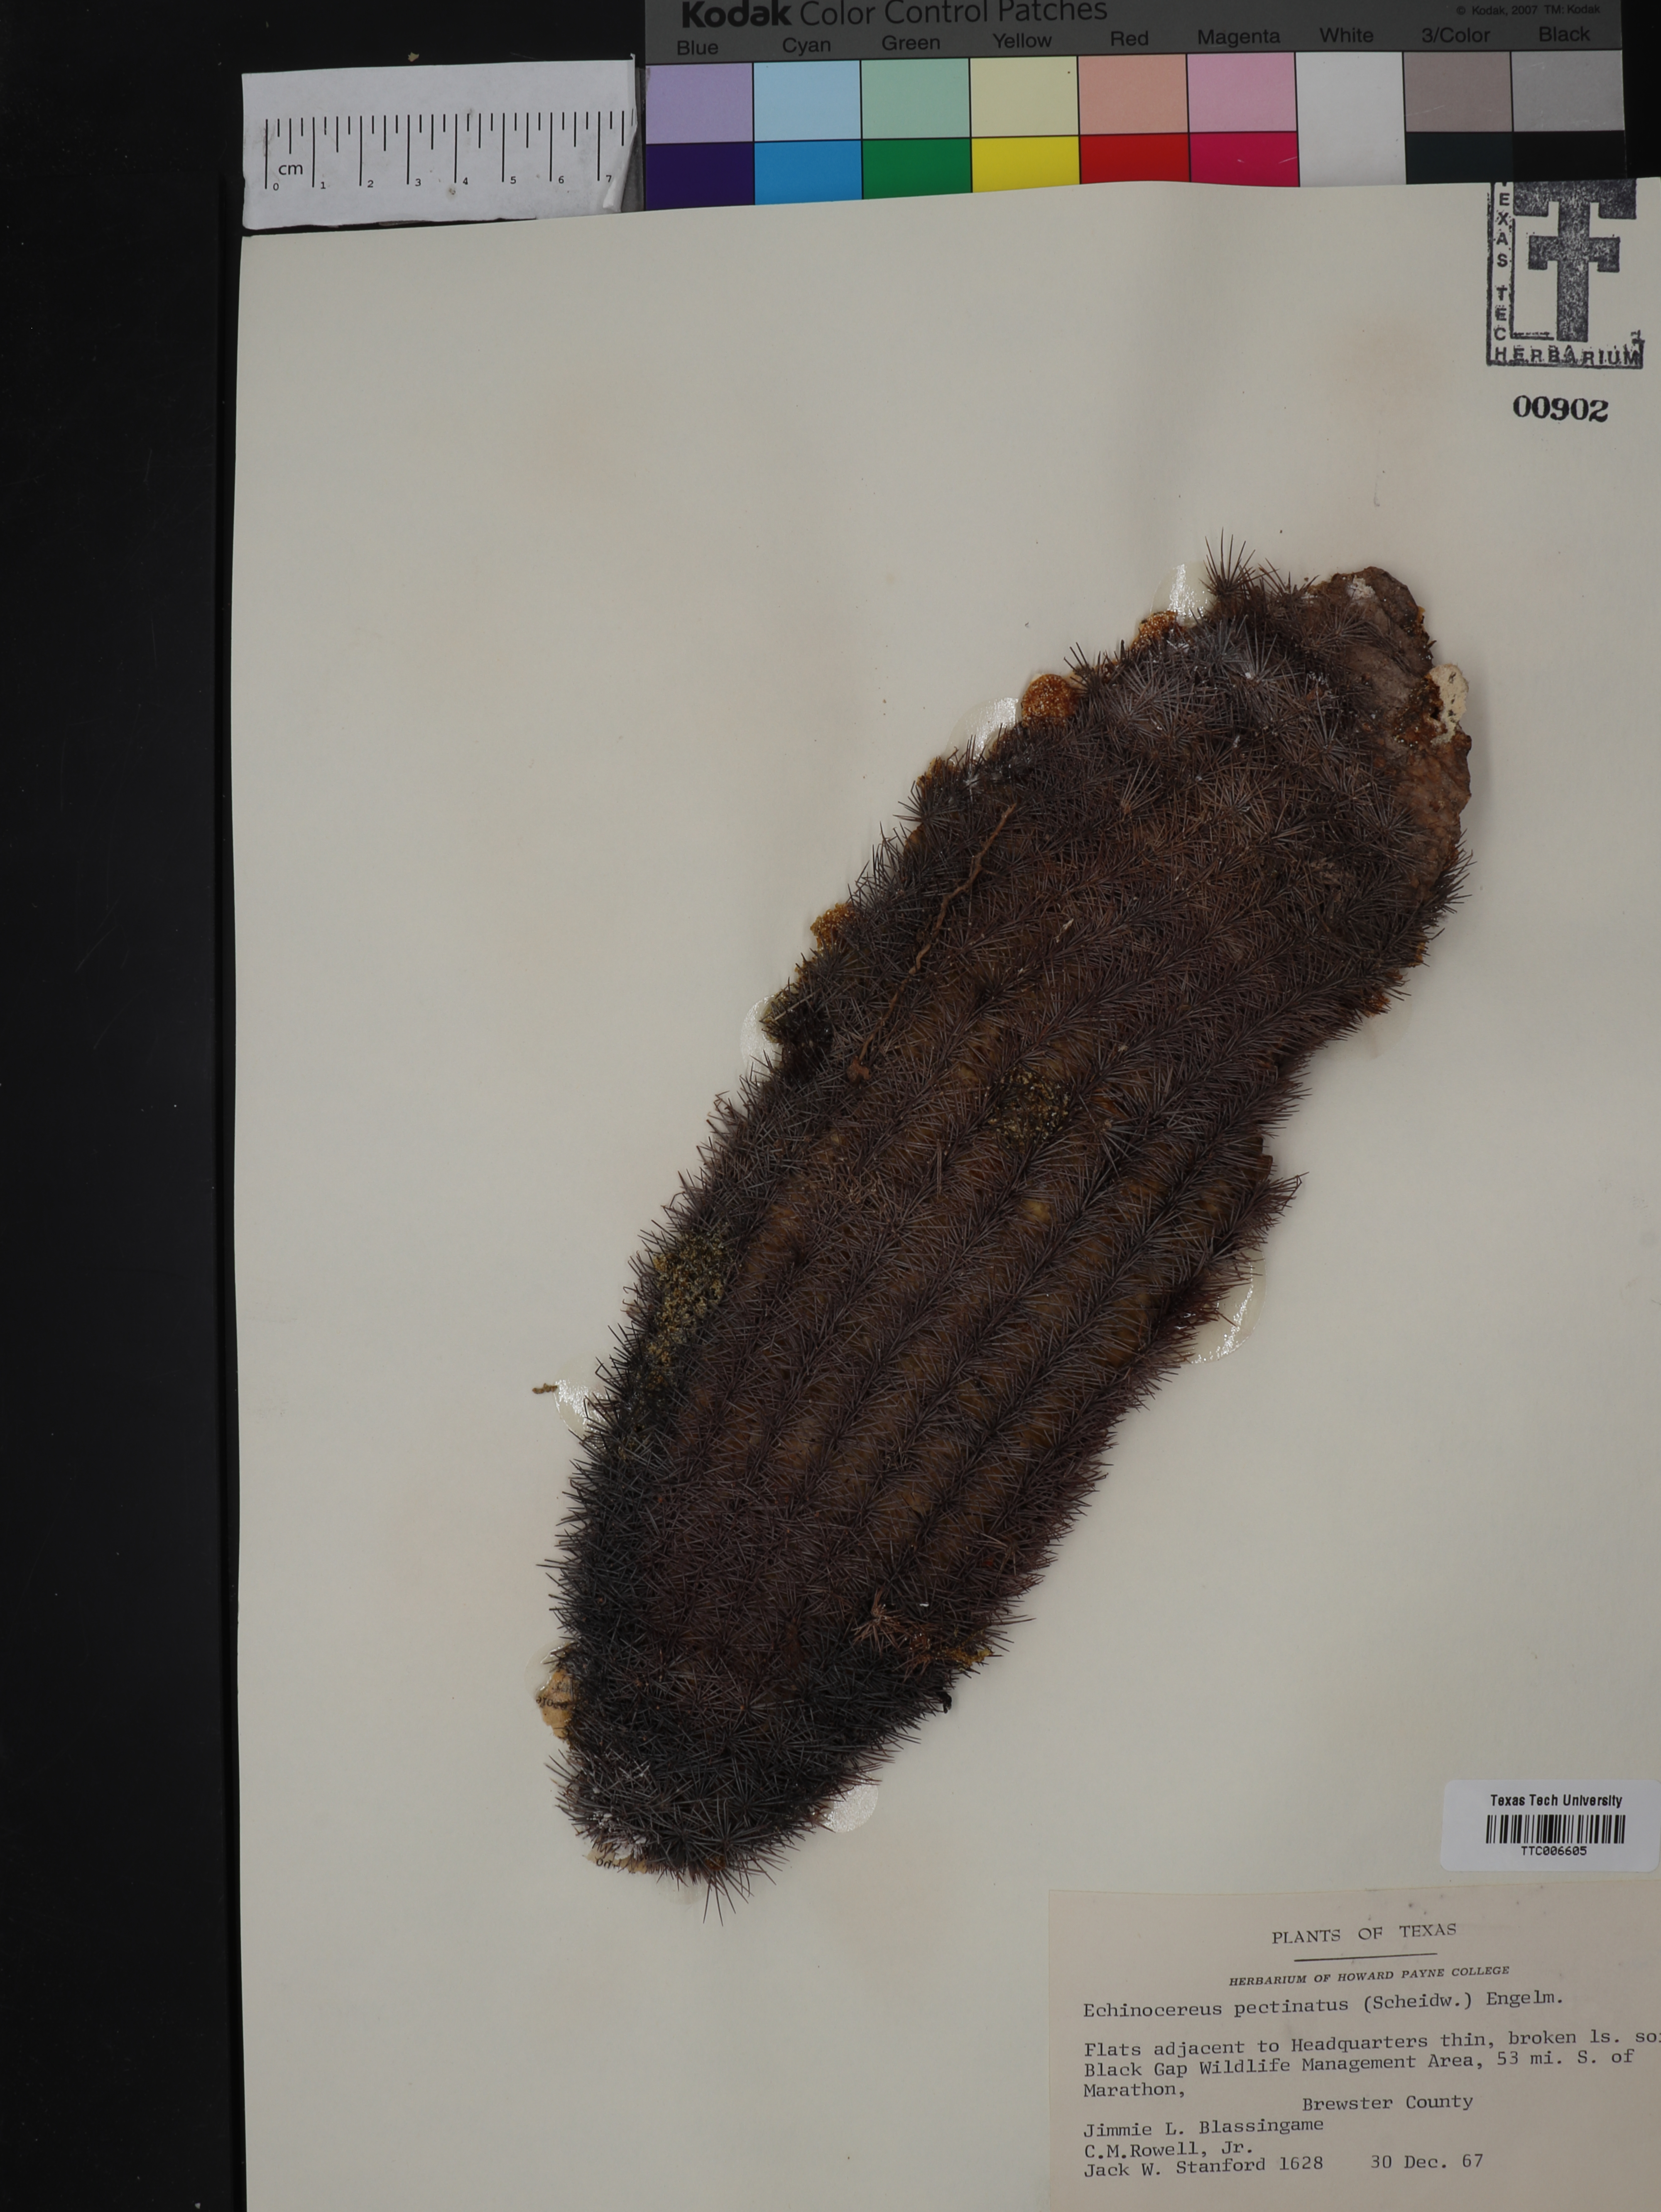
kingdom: Plantae
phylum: Tracheophyta
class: Magnoliopsida
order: Caryophyllales
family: Cactaceae
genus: Echinocereus
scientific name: Echinocereus pectinatus
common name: Rainbow cactus
